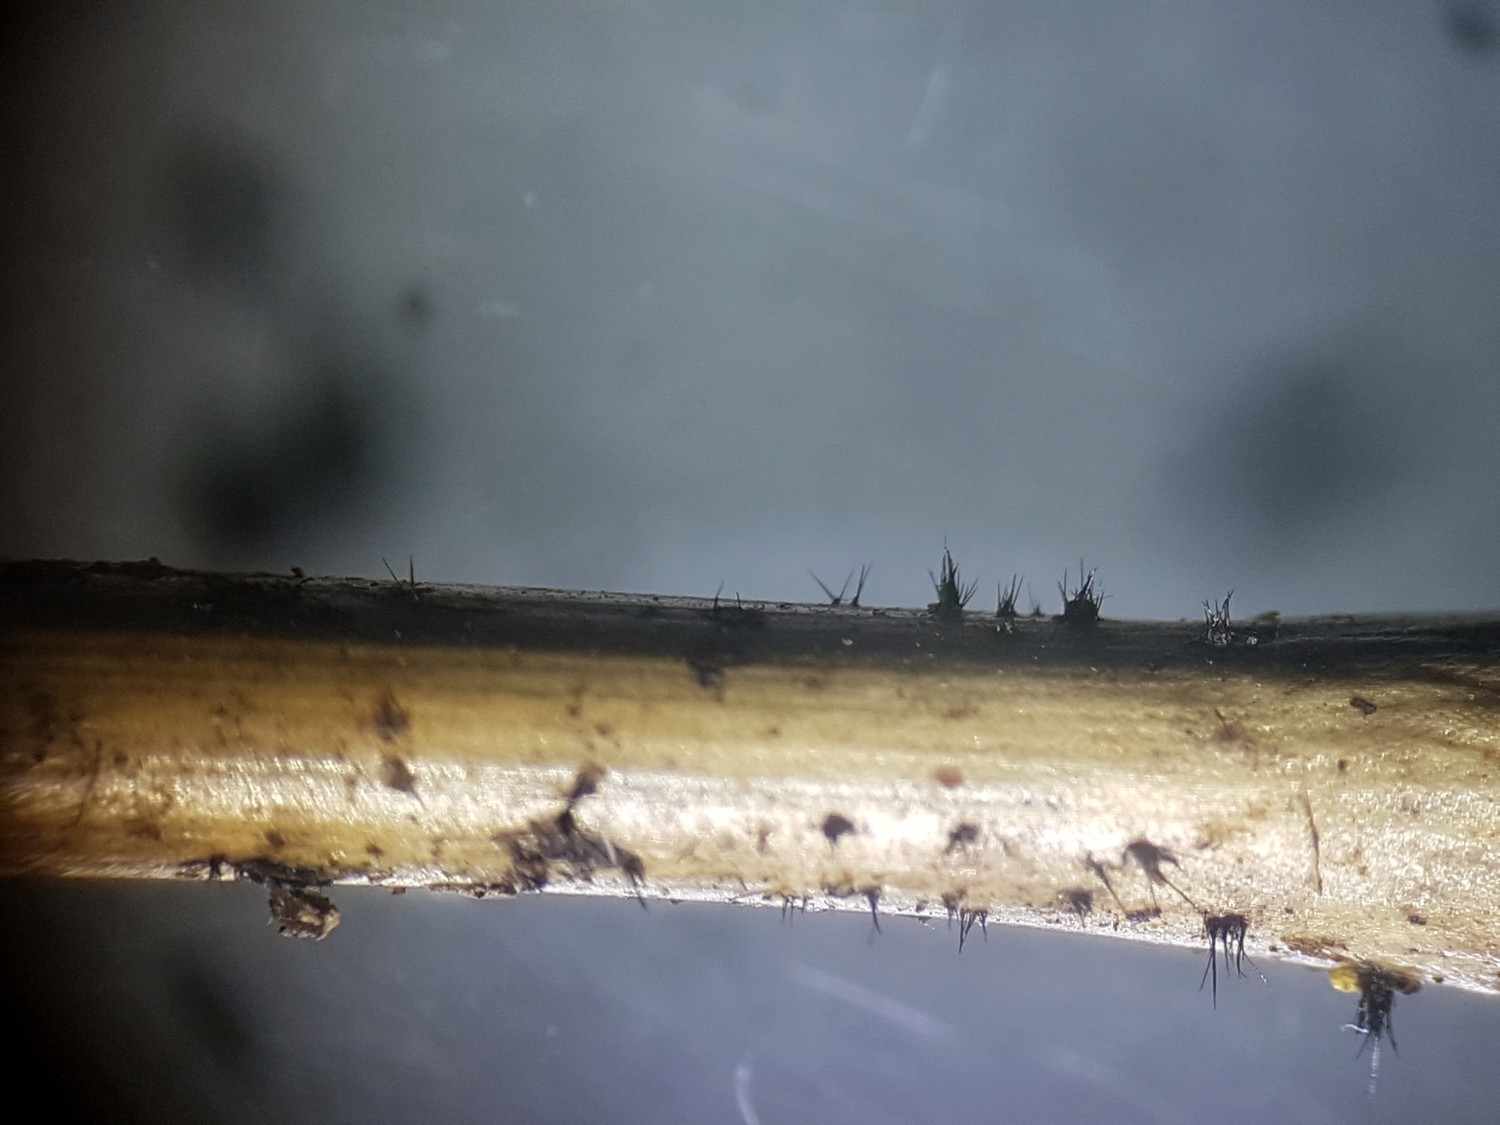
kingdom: Fungi
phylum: Ascomycota
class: Sordariomycetes
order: Chaetosphaeriales
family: Chaetosphaeriaceae
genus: Pseudolachnea
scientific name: Pseudolachnea hispidula
